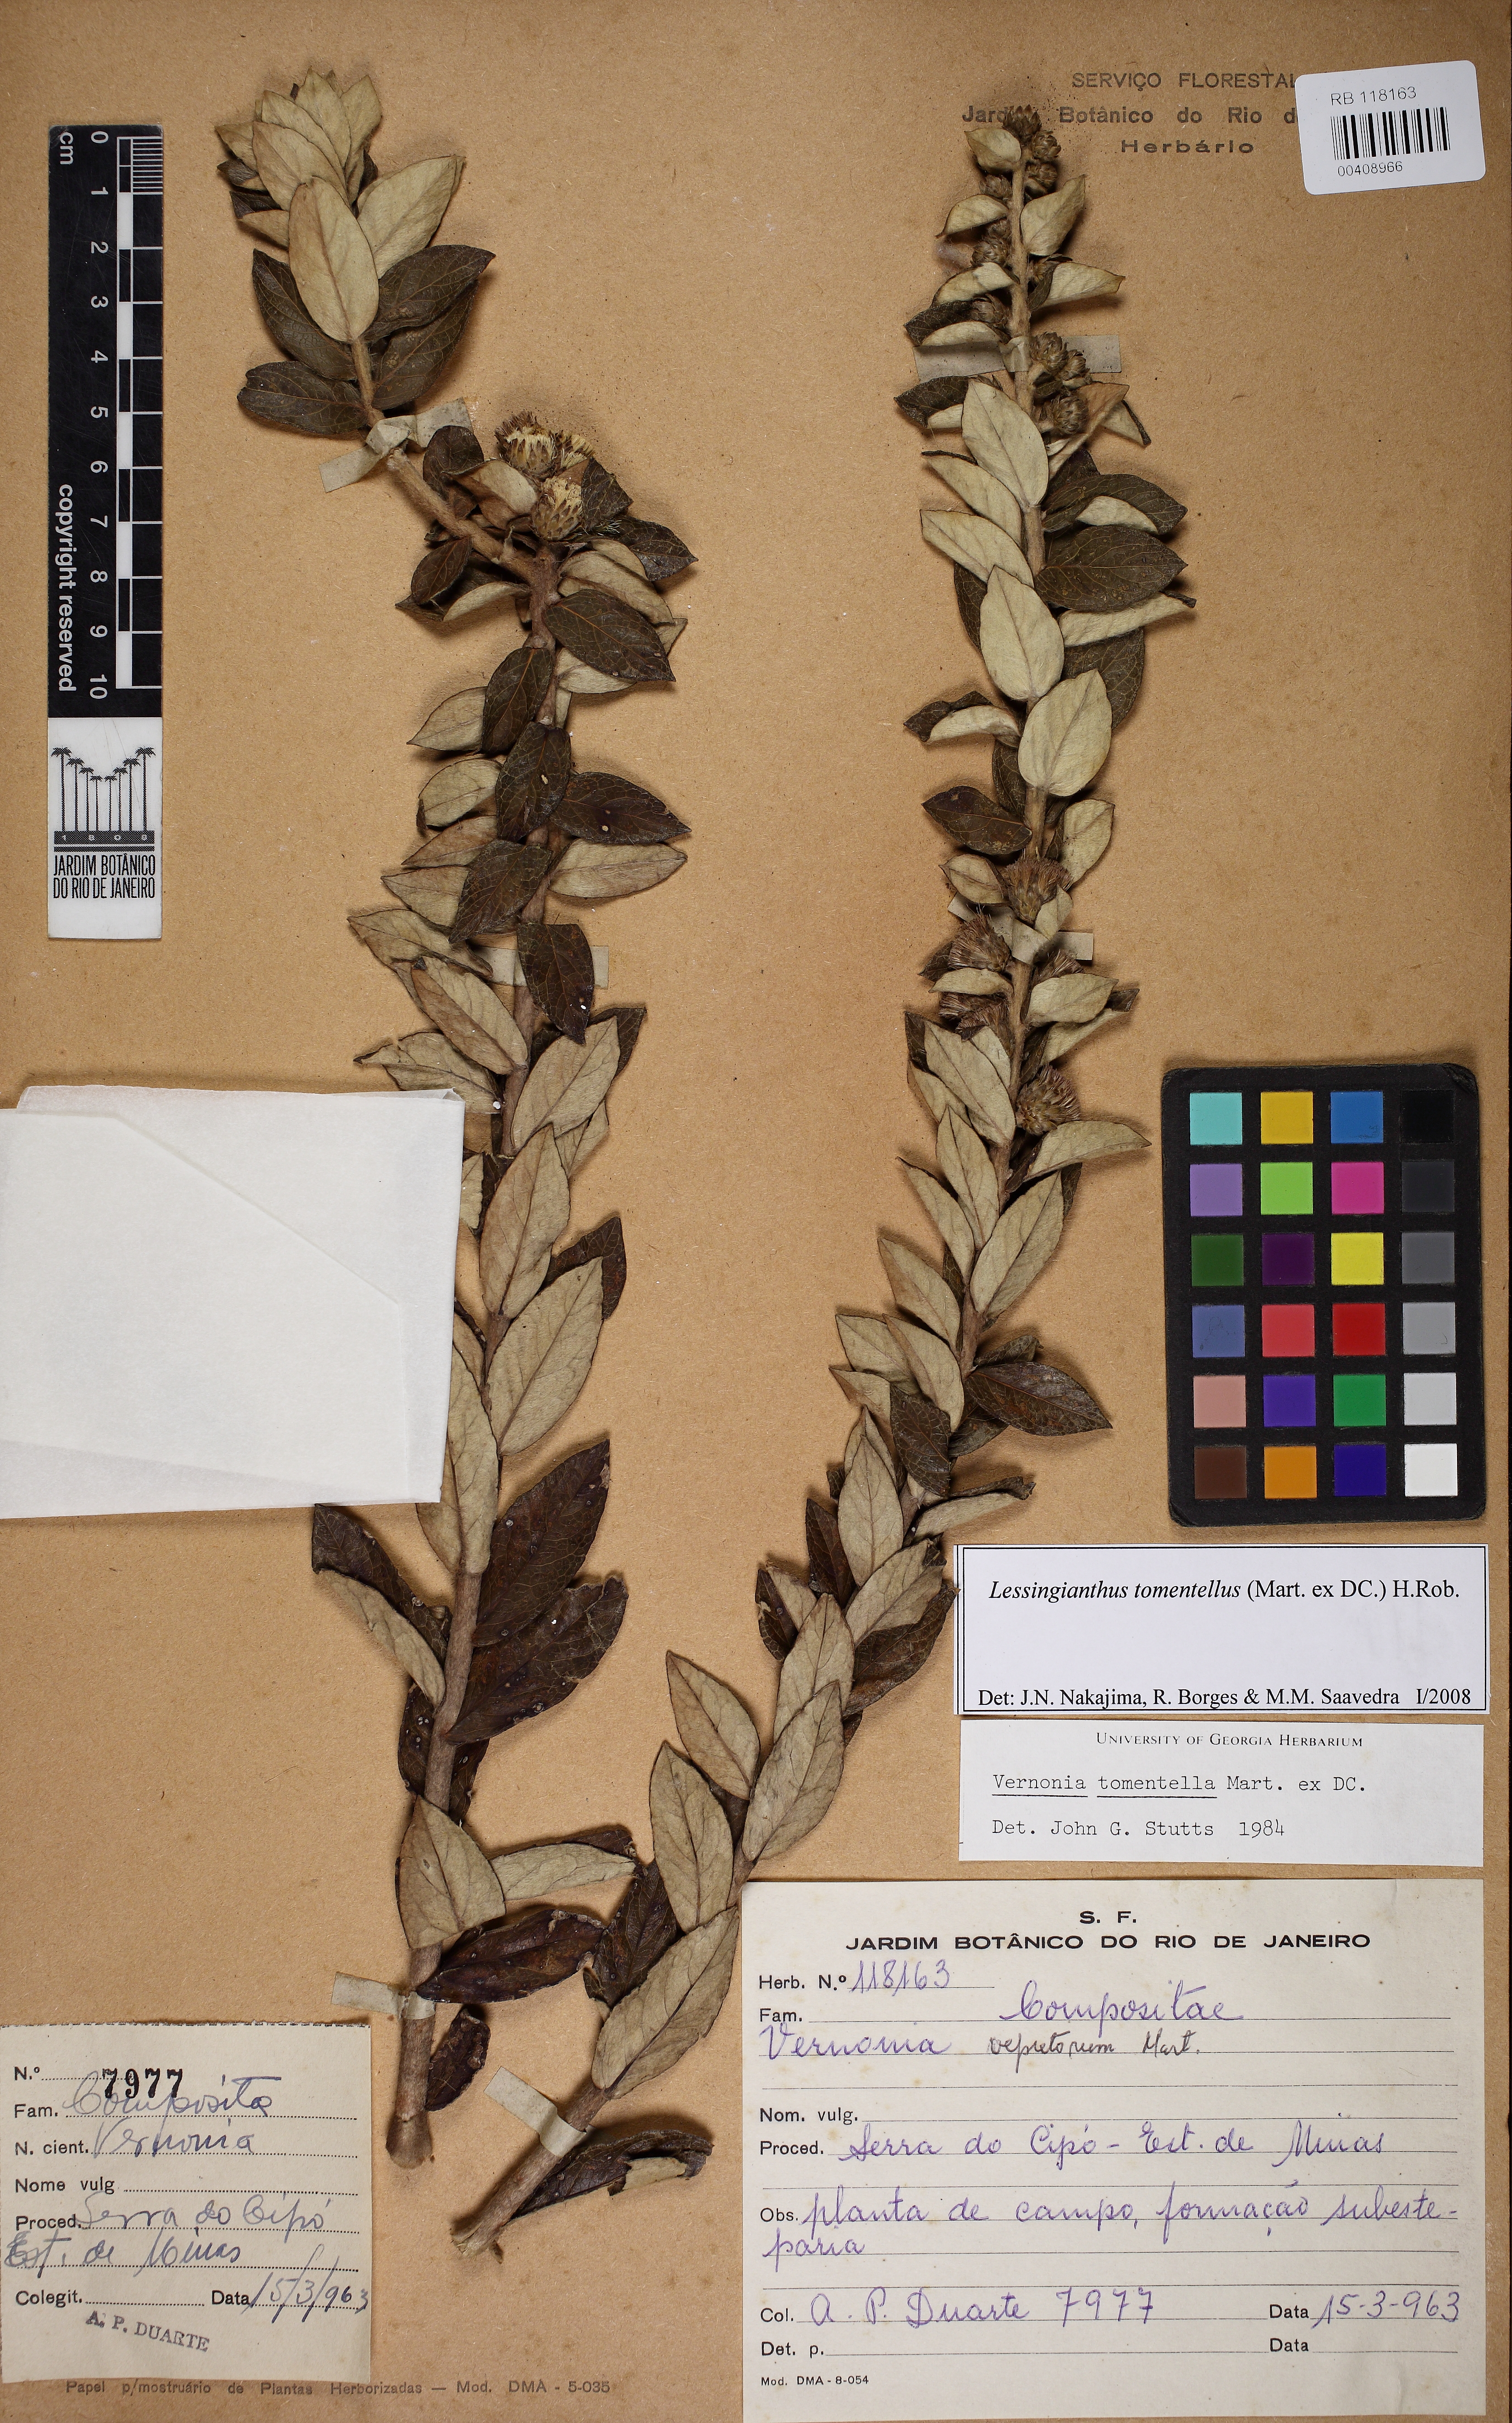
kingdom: Plantae
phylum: Tracheophyta
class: Magnoliopsida
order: Asterales
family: Asteraceae
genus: Lessingianthus
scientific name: Lessingianthus tomentellus
